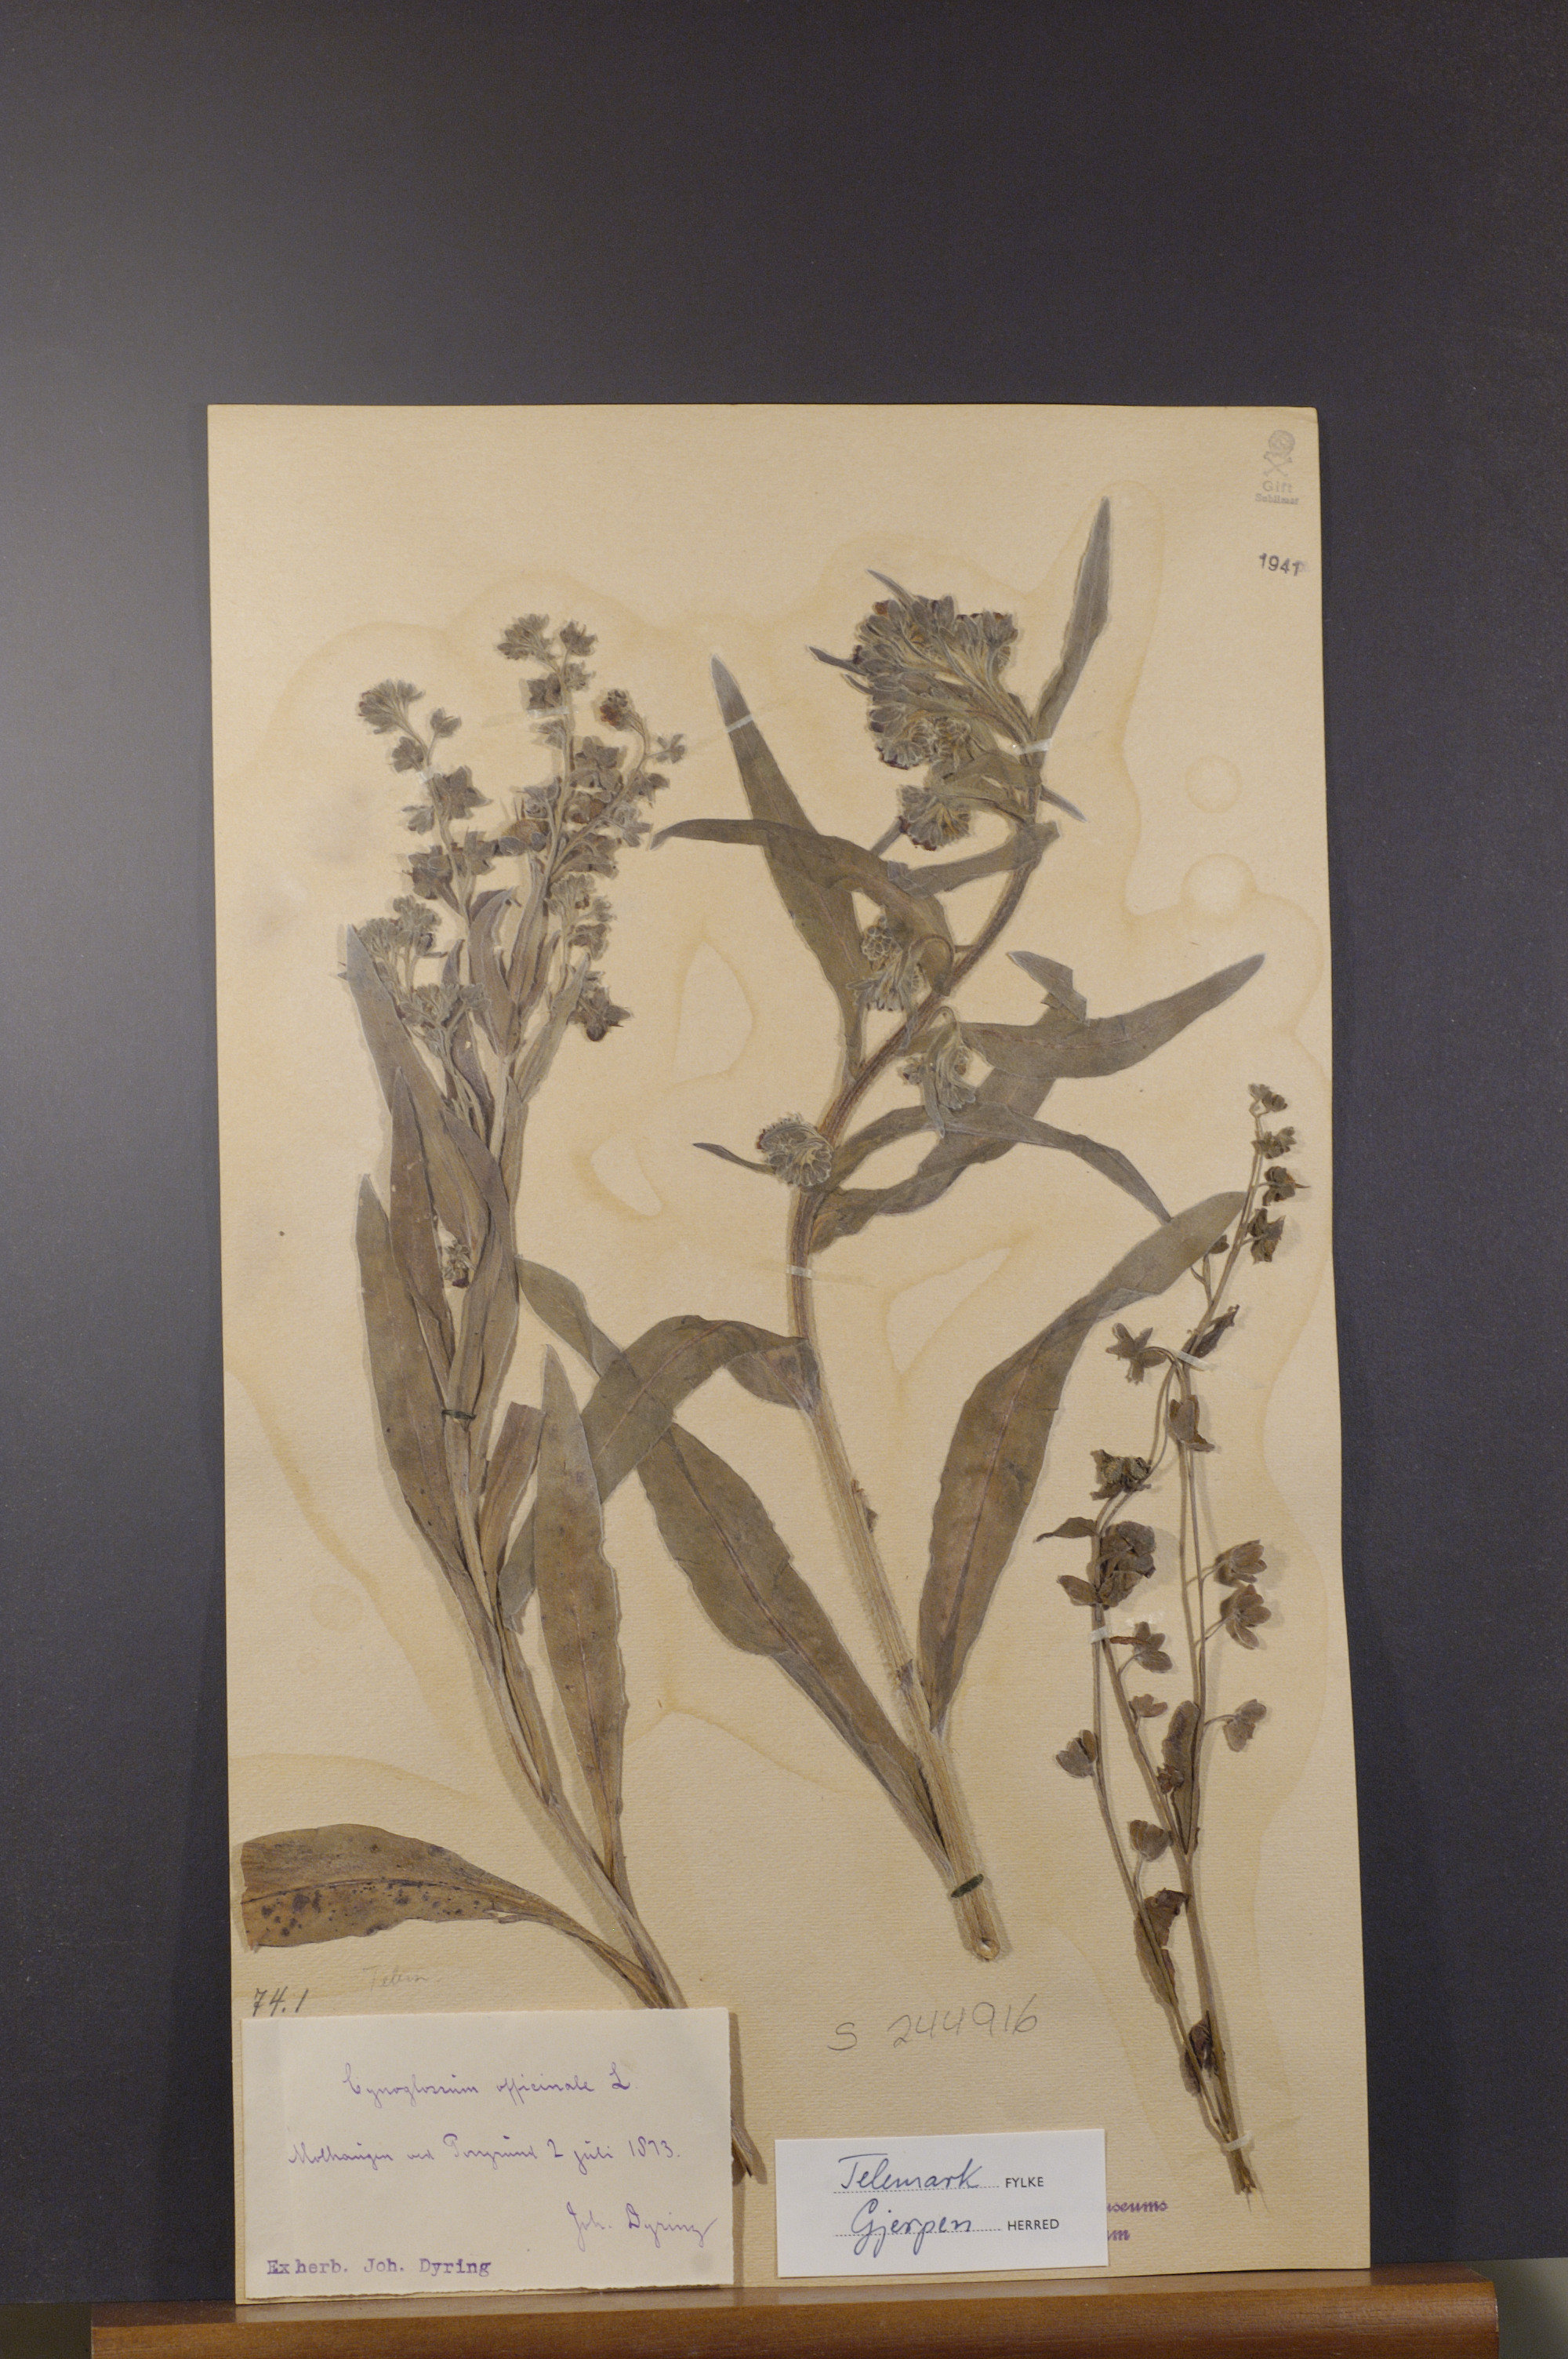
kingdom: Plantae
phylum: Tracheophyta
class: Magnoliopsida
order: Boraginales
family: Boraginaceae
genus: Cynoglossum
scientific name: Cynoglossum officinale
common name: Hound's-tongue
